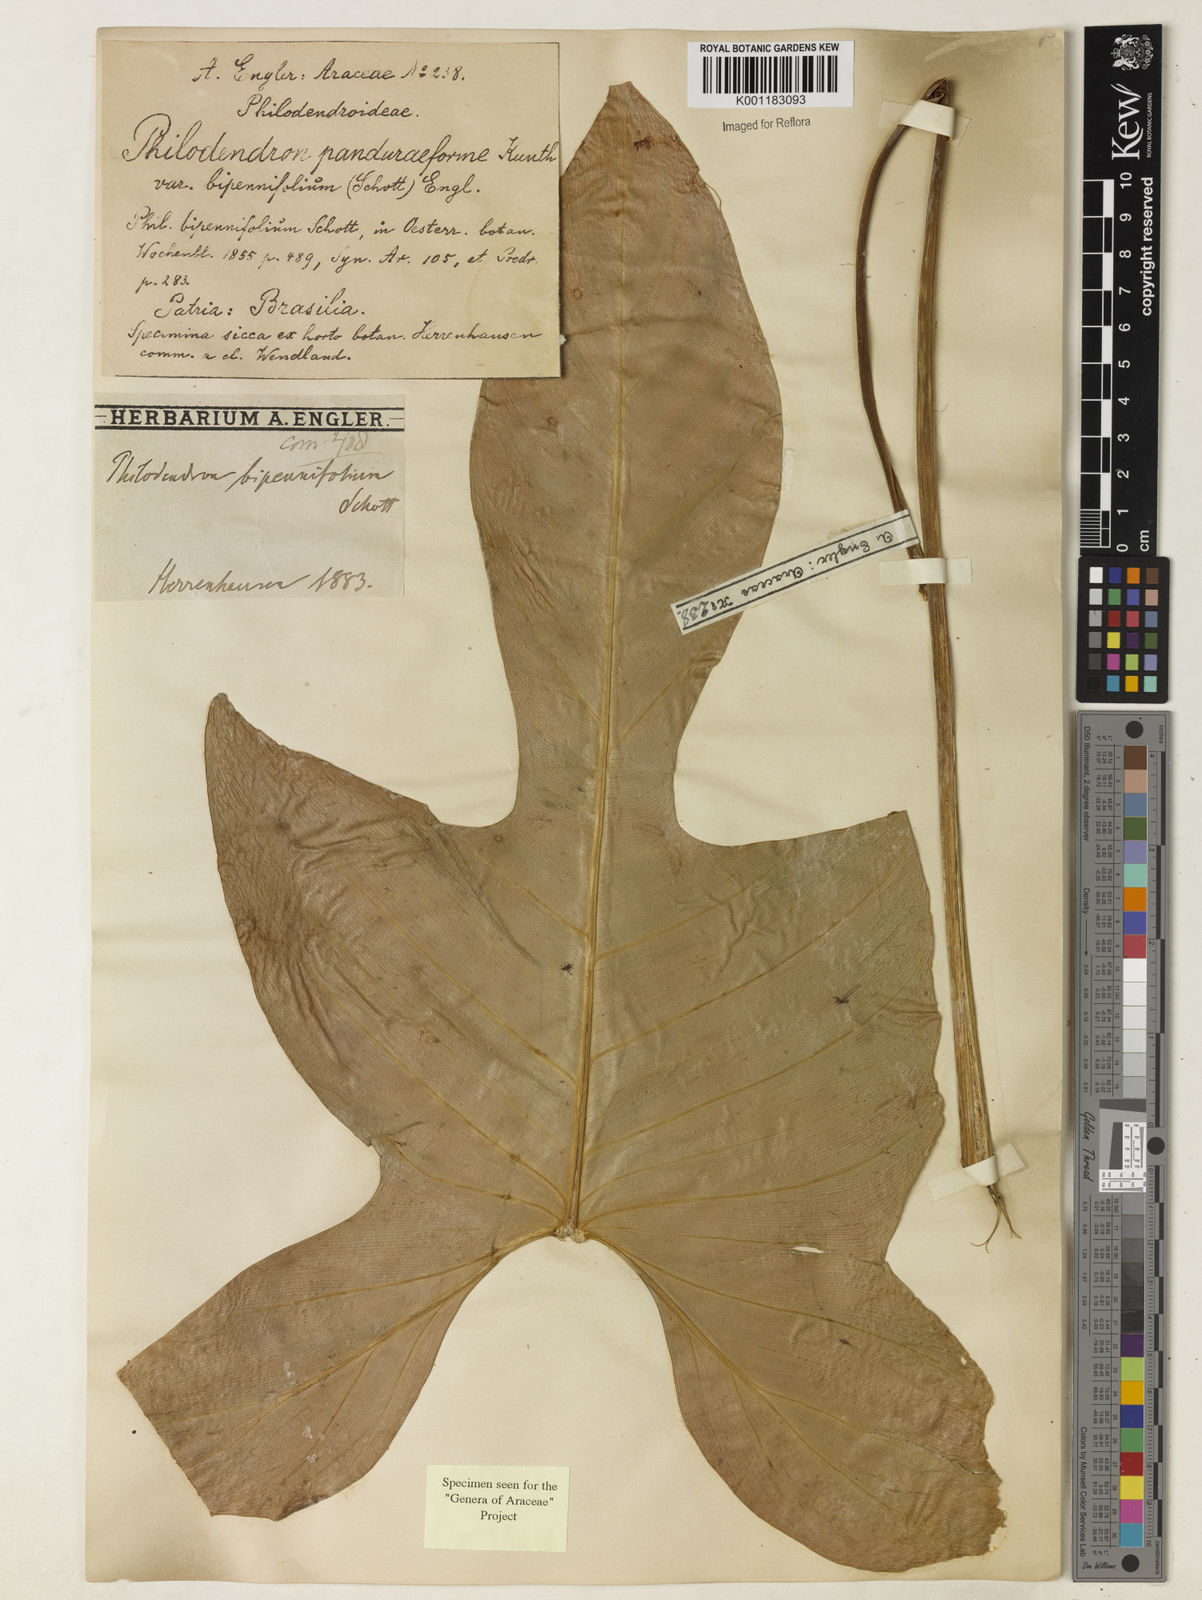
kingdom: Plantae
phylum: Tracheophyta
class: Liliopsida
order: Alismatales
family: Araceae
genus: Philodendron
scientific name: Philodendron bipennifolium
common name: Fiddle-leaf philodendron
